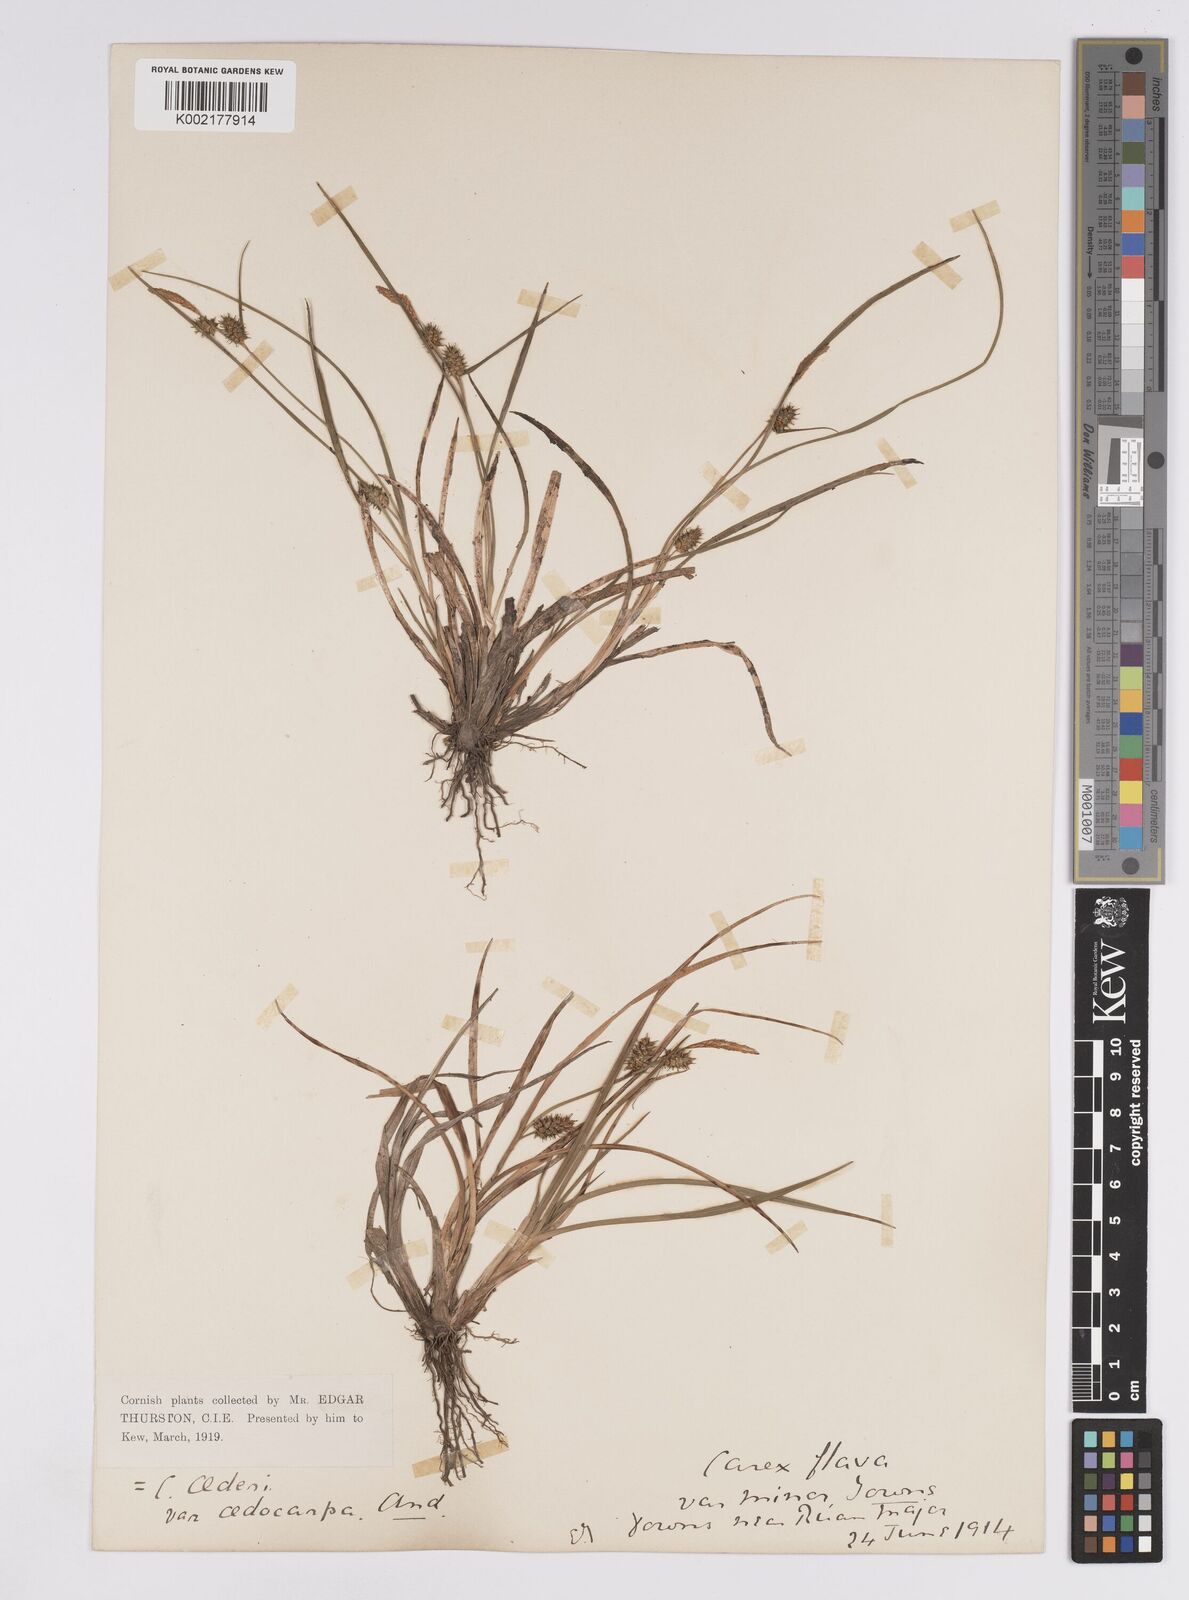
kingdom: Plantae
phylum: Tracheophyta
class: Liliopsida
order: Poales
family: Cyperaceae
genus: Carex
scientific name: Carex demissa
